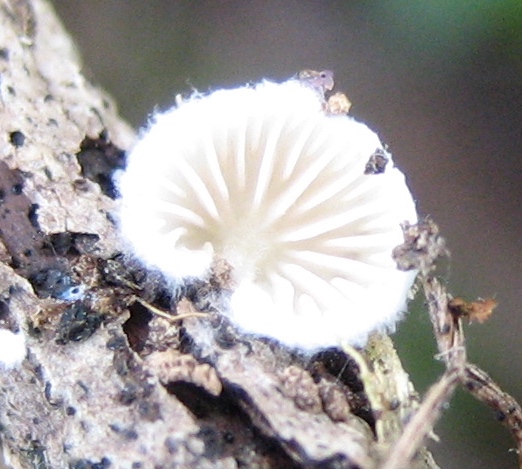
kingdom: Fungi
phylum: Basidiomycota
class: Agaricomycetes
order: Agaricales
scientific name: Agaricales
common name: champignonordenen
